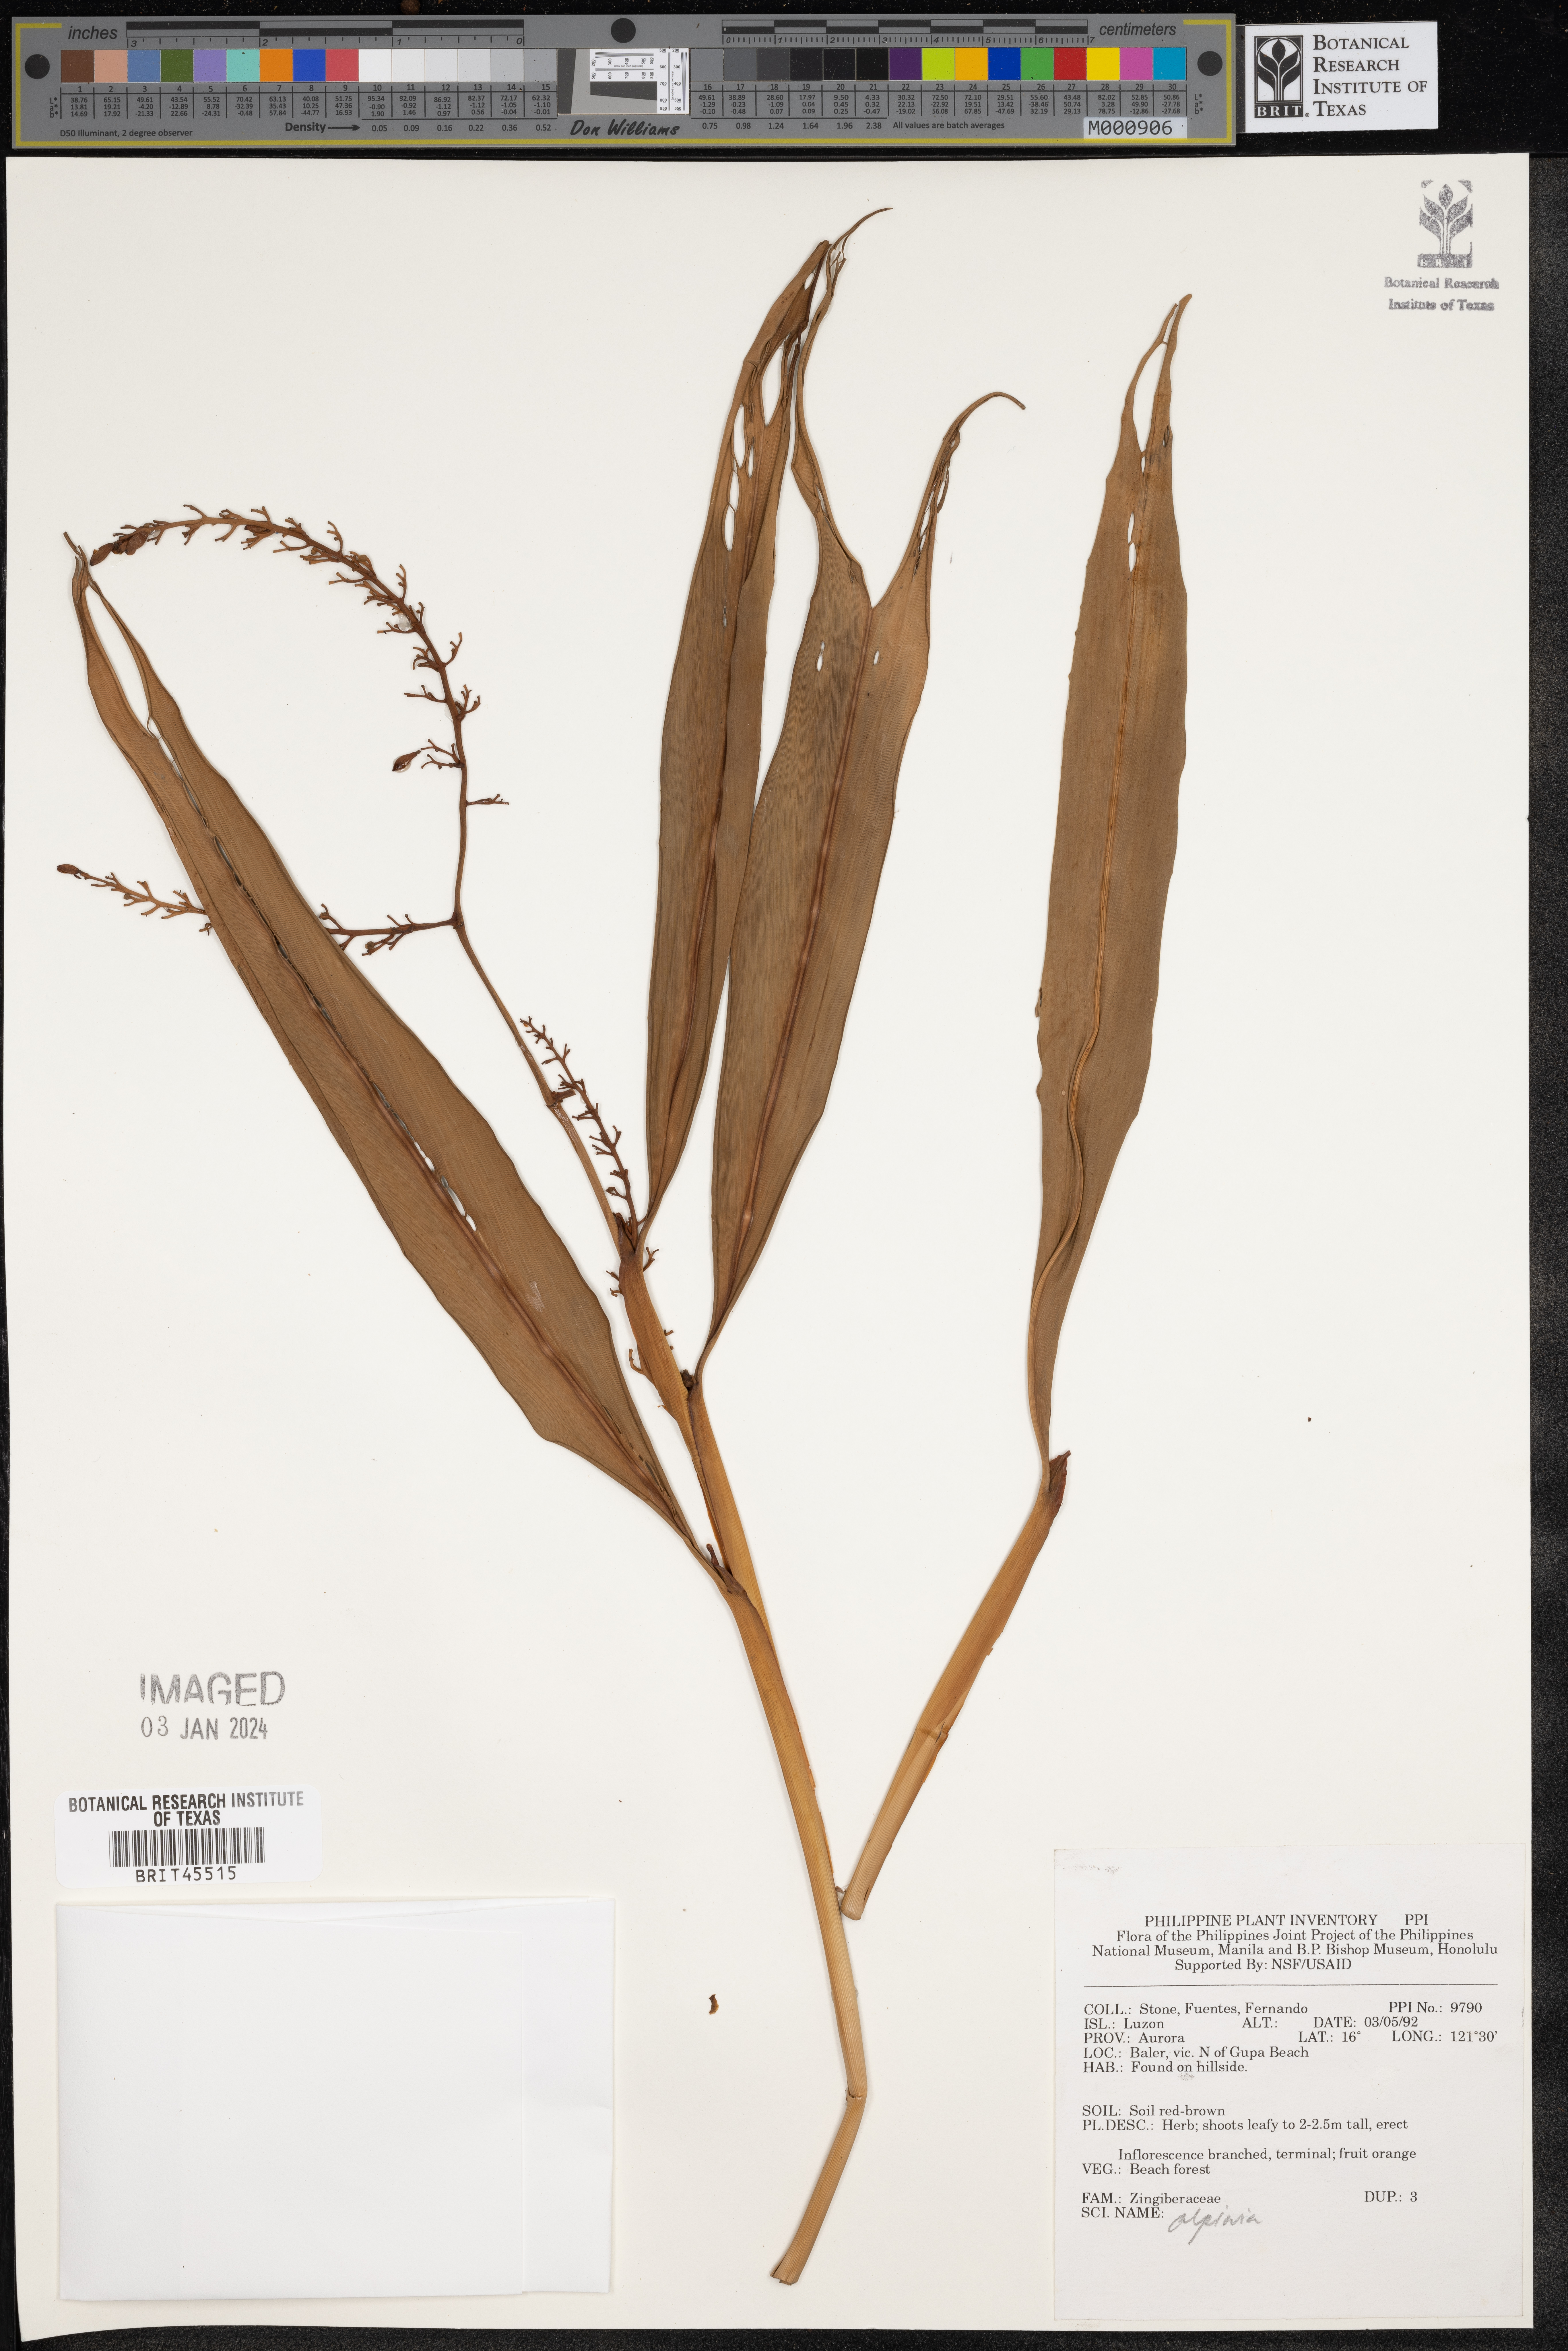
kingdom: Plantae
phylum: Tracheophyta
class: Liliopsida
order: Zingiberales
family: Zingiberaceae
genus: Alpinia
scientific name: Alpinia
